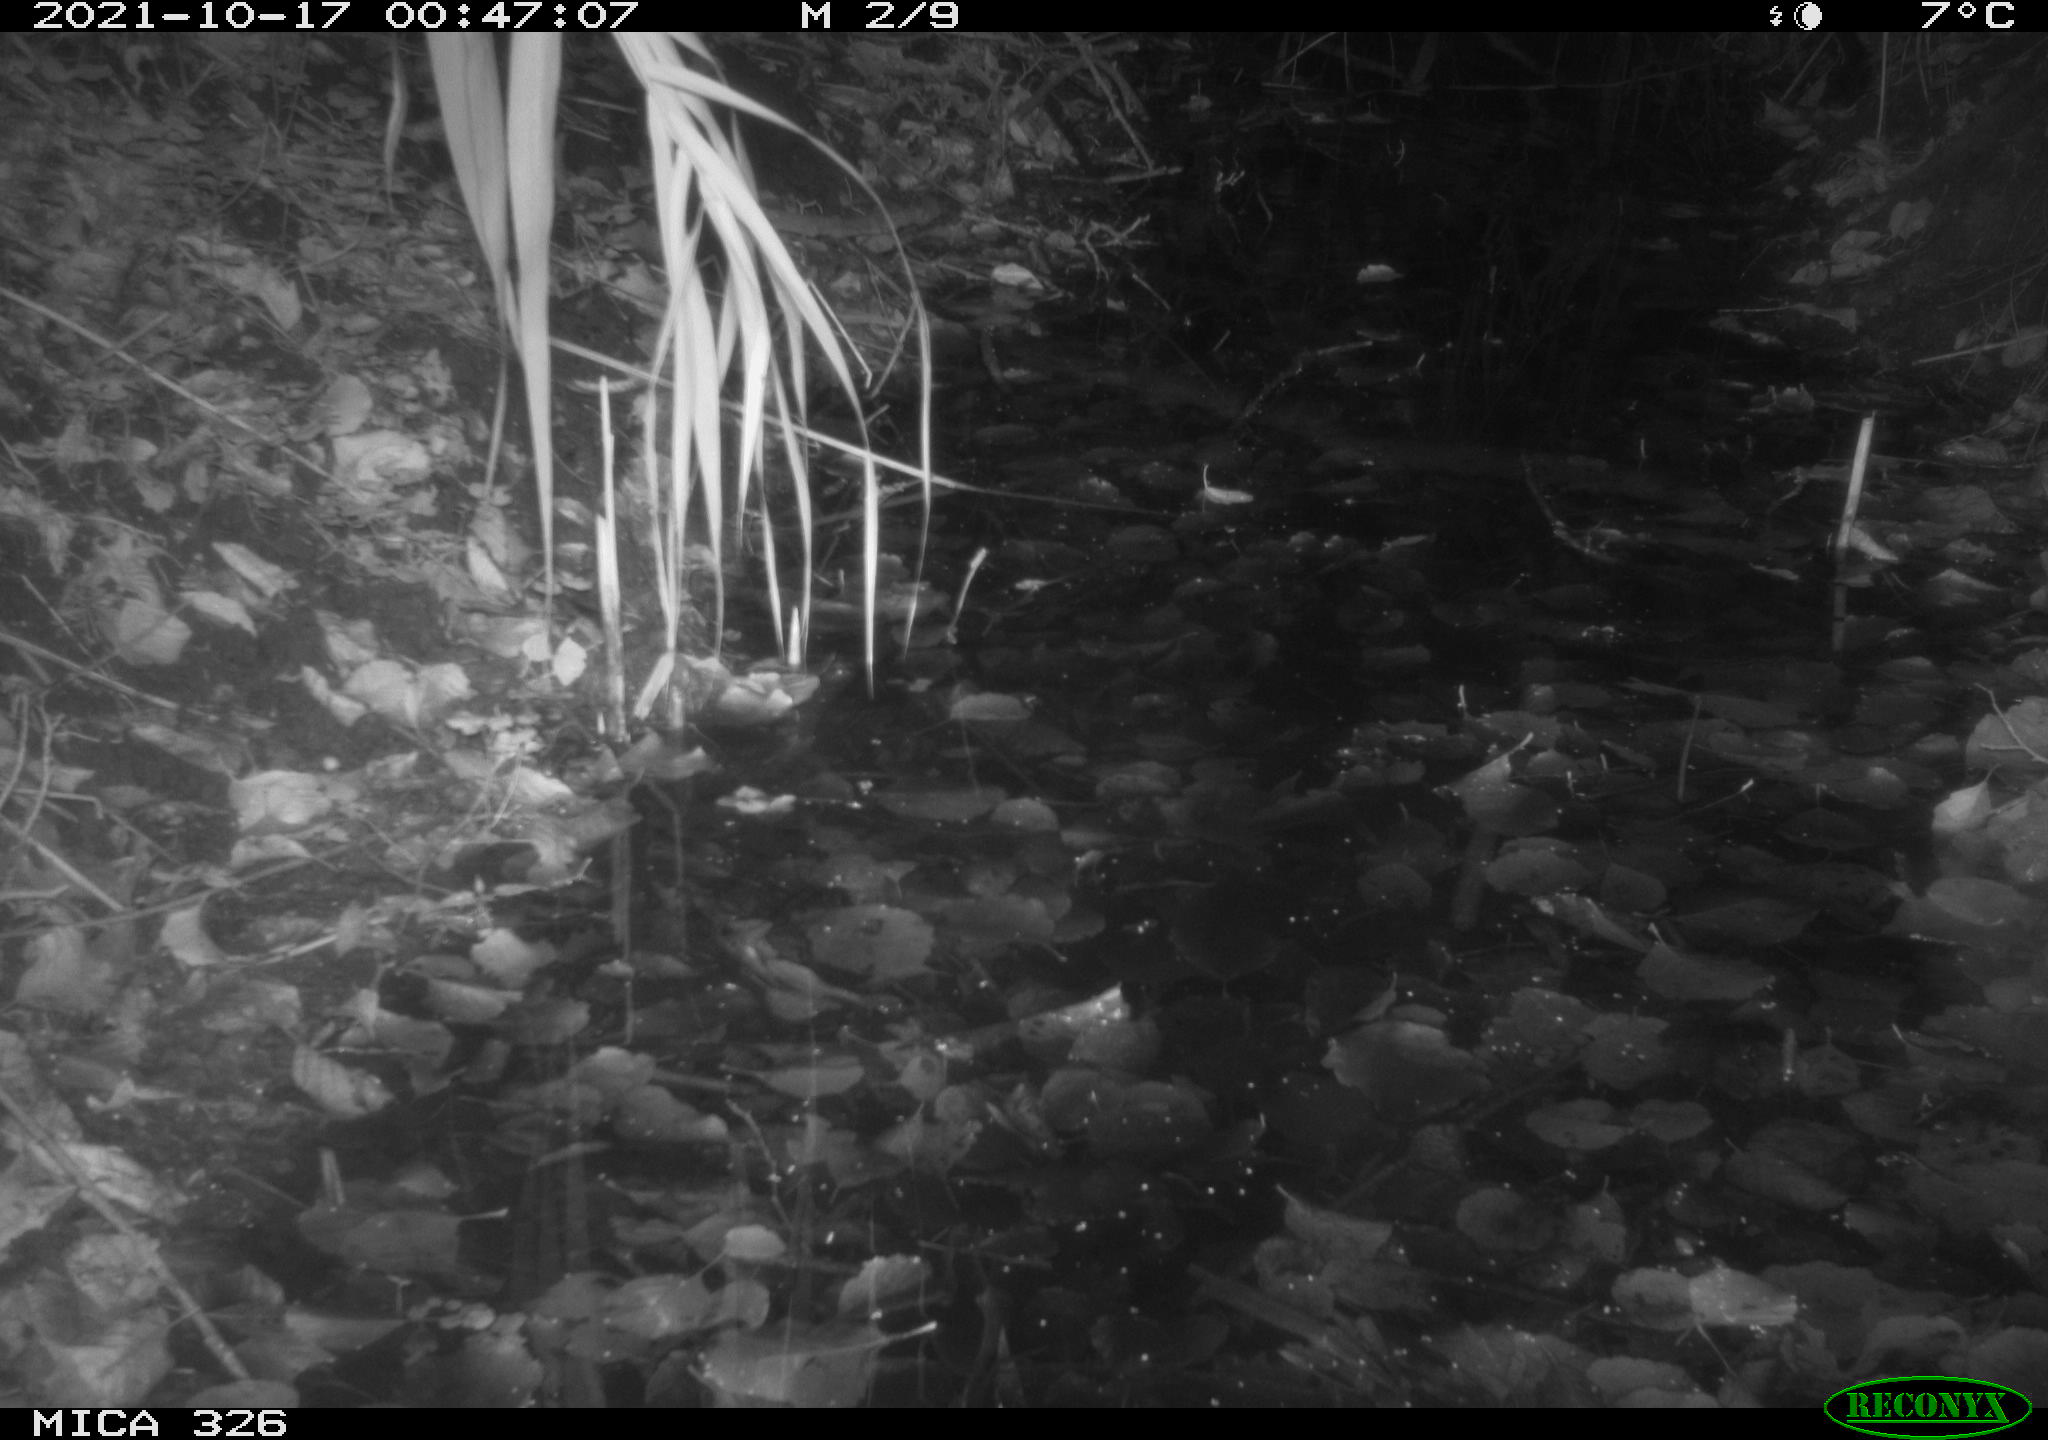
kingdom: Animalia
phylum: Chordata
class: Mammalia
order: Rodentia
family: Myocastoridae
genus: Myocastor
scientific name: Myocastor coypus
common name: Coypu
